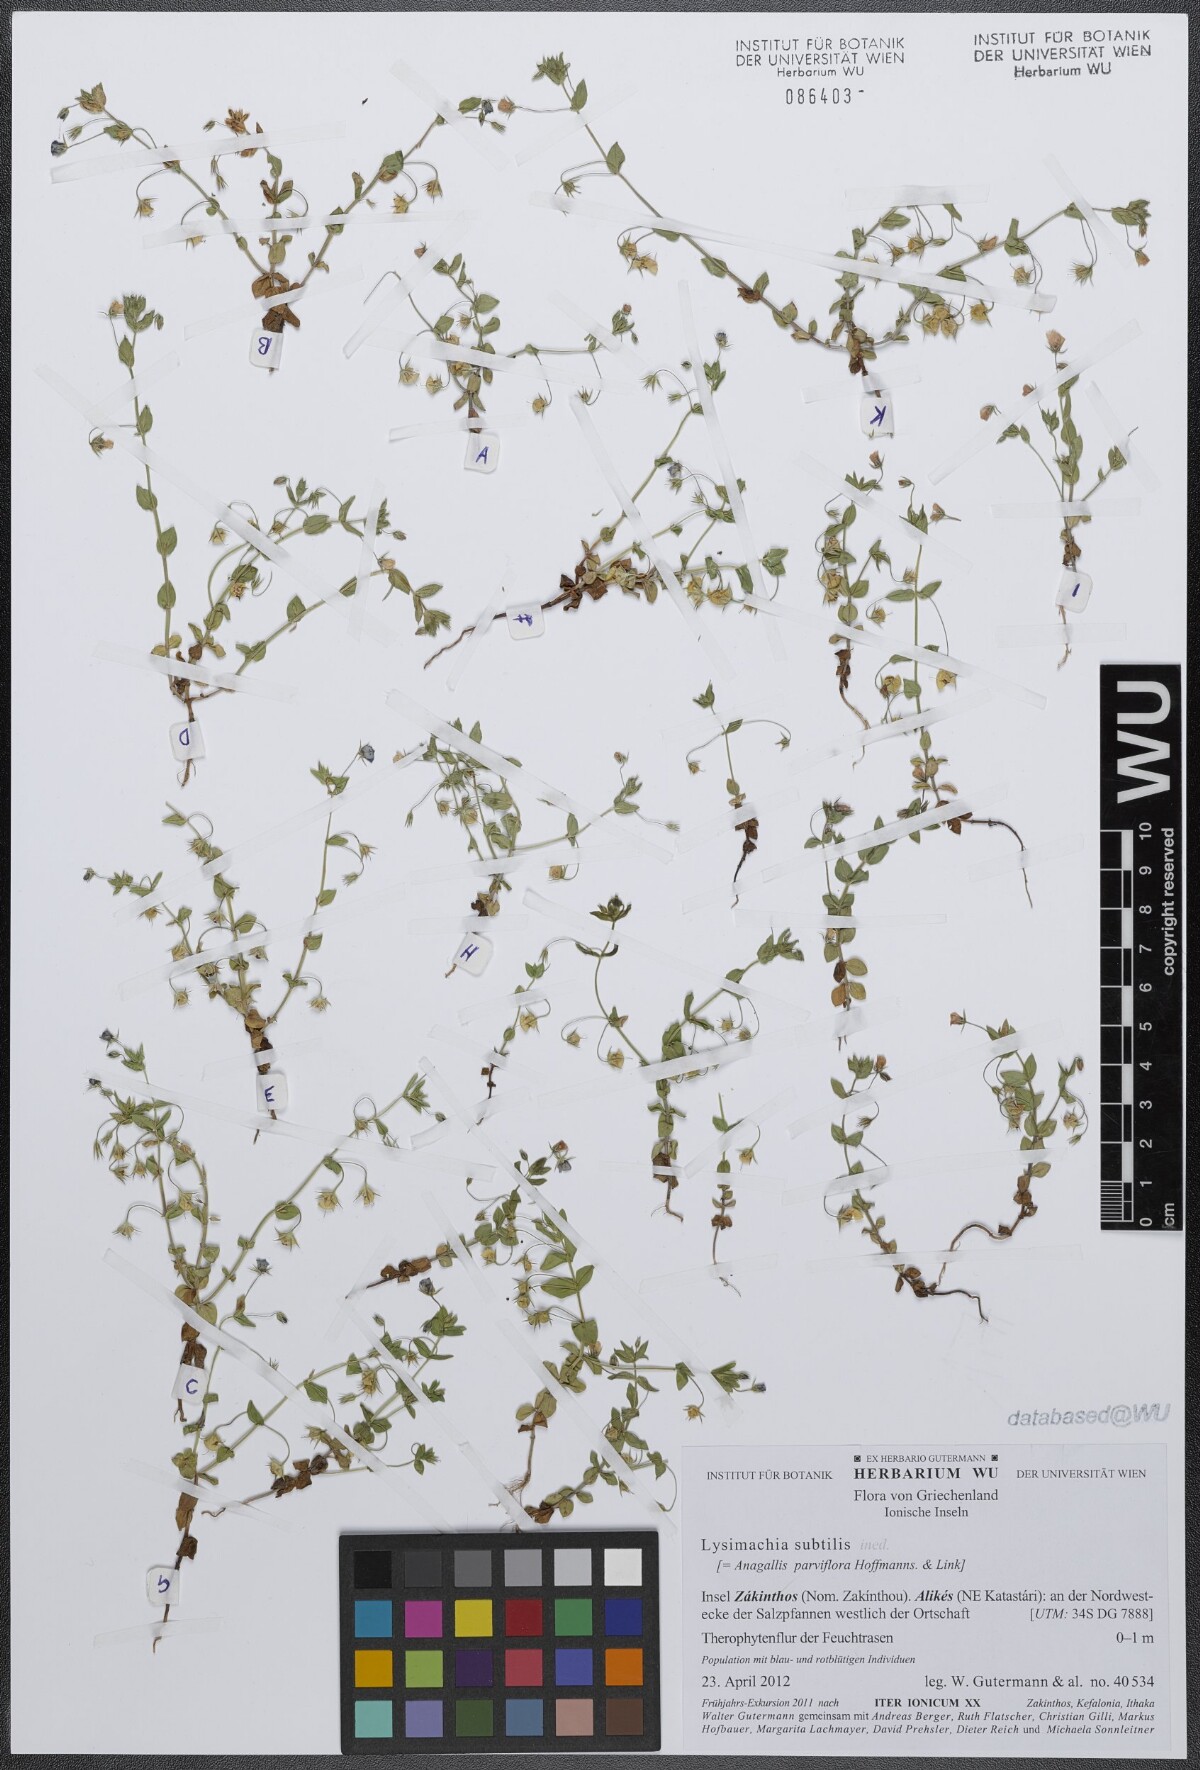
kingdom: Plantae
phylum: Tracheophyta
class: Magnoliopsida
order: Ericales
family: Primulaceae
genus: Lysimachia
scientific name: Lysimachia talaverae
